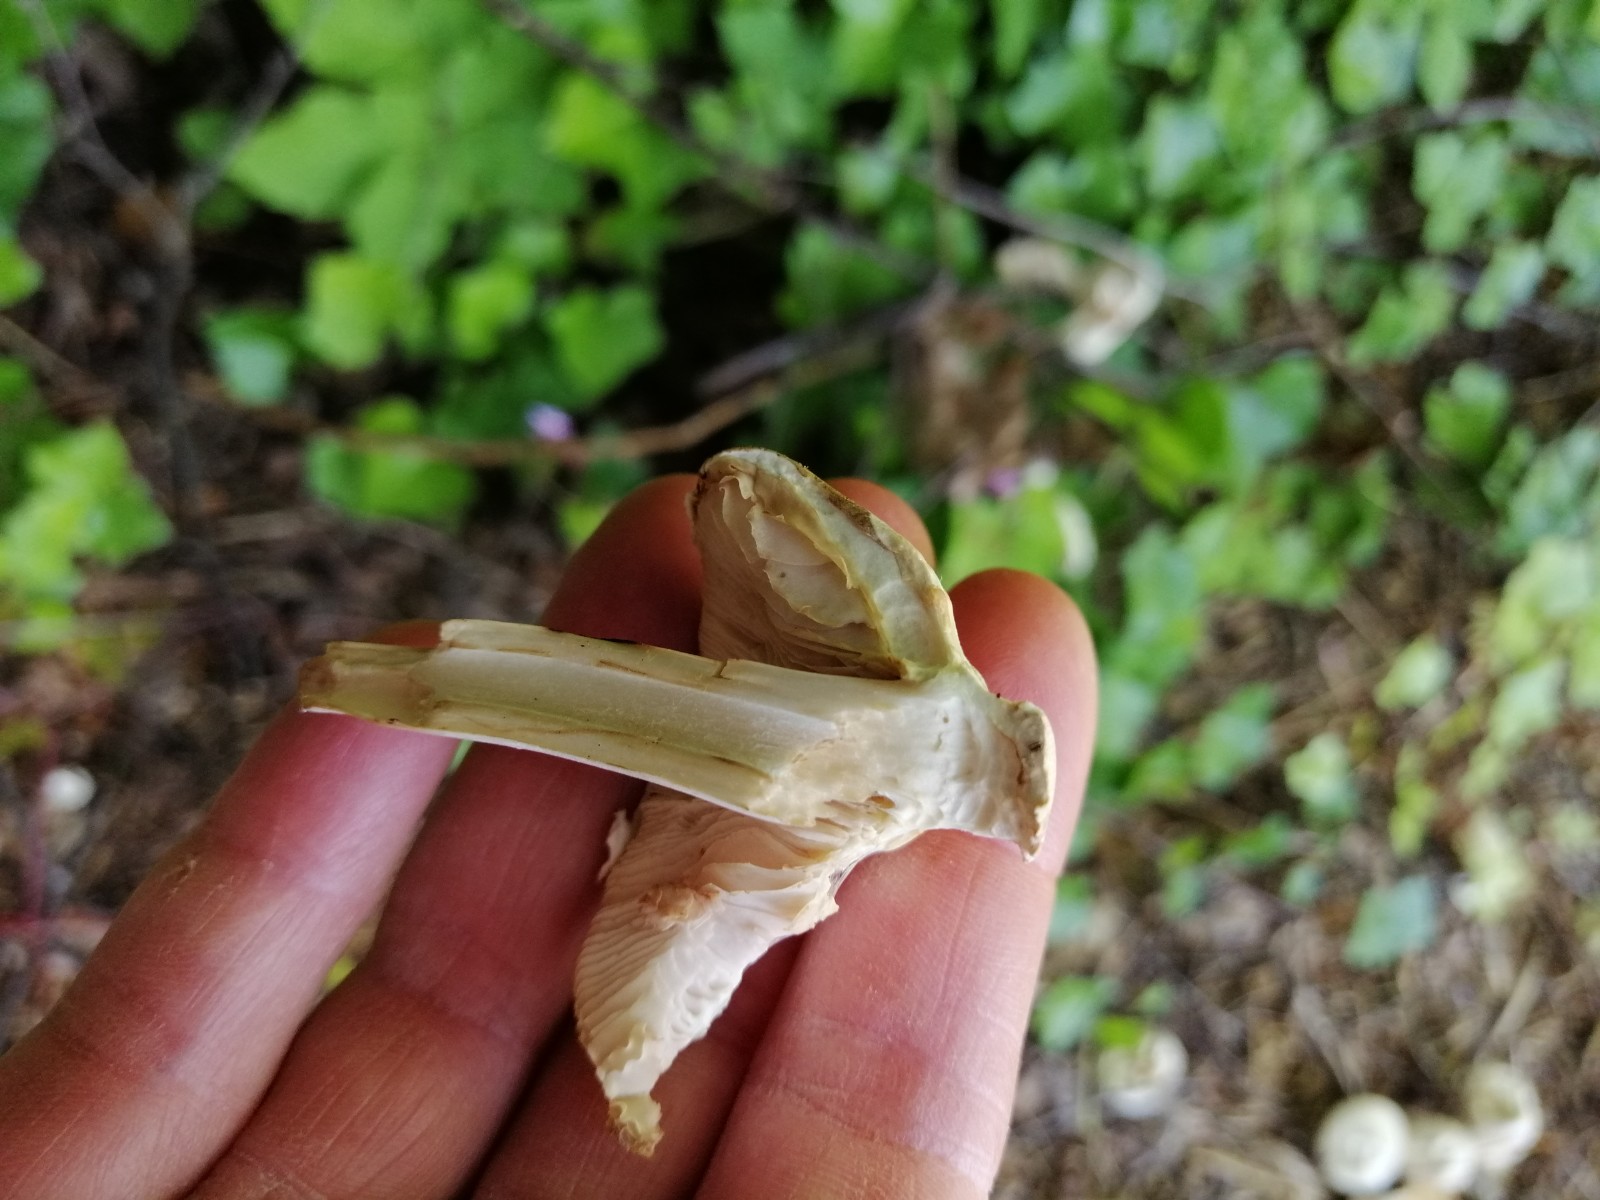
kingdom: Fungi
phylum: Basidiomycota
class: Agaricomycetes
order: Agaricales
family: Agaricaceae
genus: Leucoagaricus
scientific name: Leucoagaricus leucothites
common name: rosabladet silkehat
